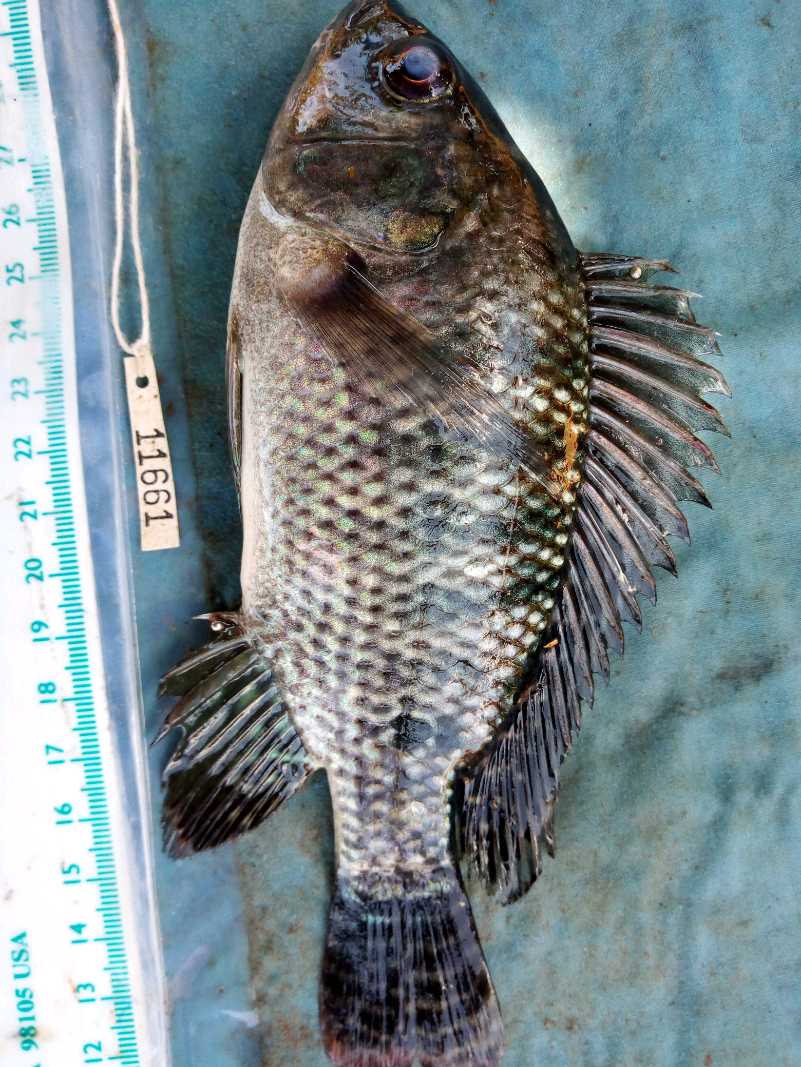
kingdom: Animalia
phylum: Chordata
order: Perciformes
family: Cichlidae
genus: Oreochromis
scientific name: Oreochromis niloticus
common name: Nile tilapia
